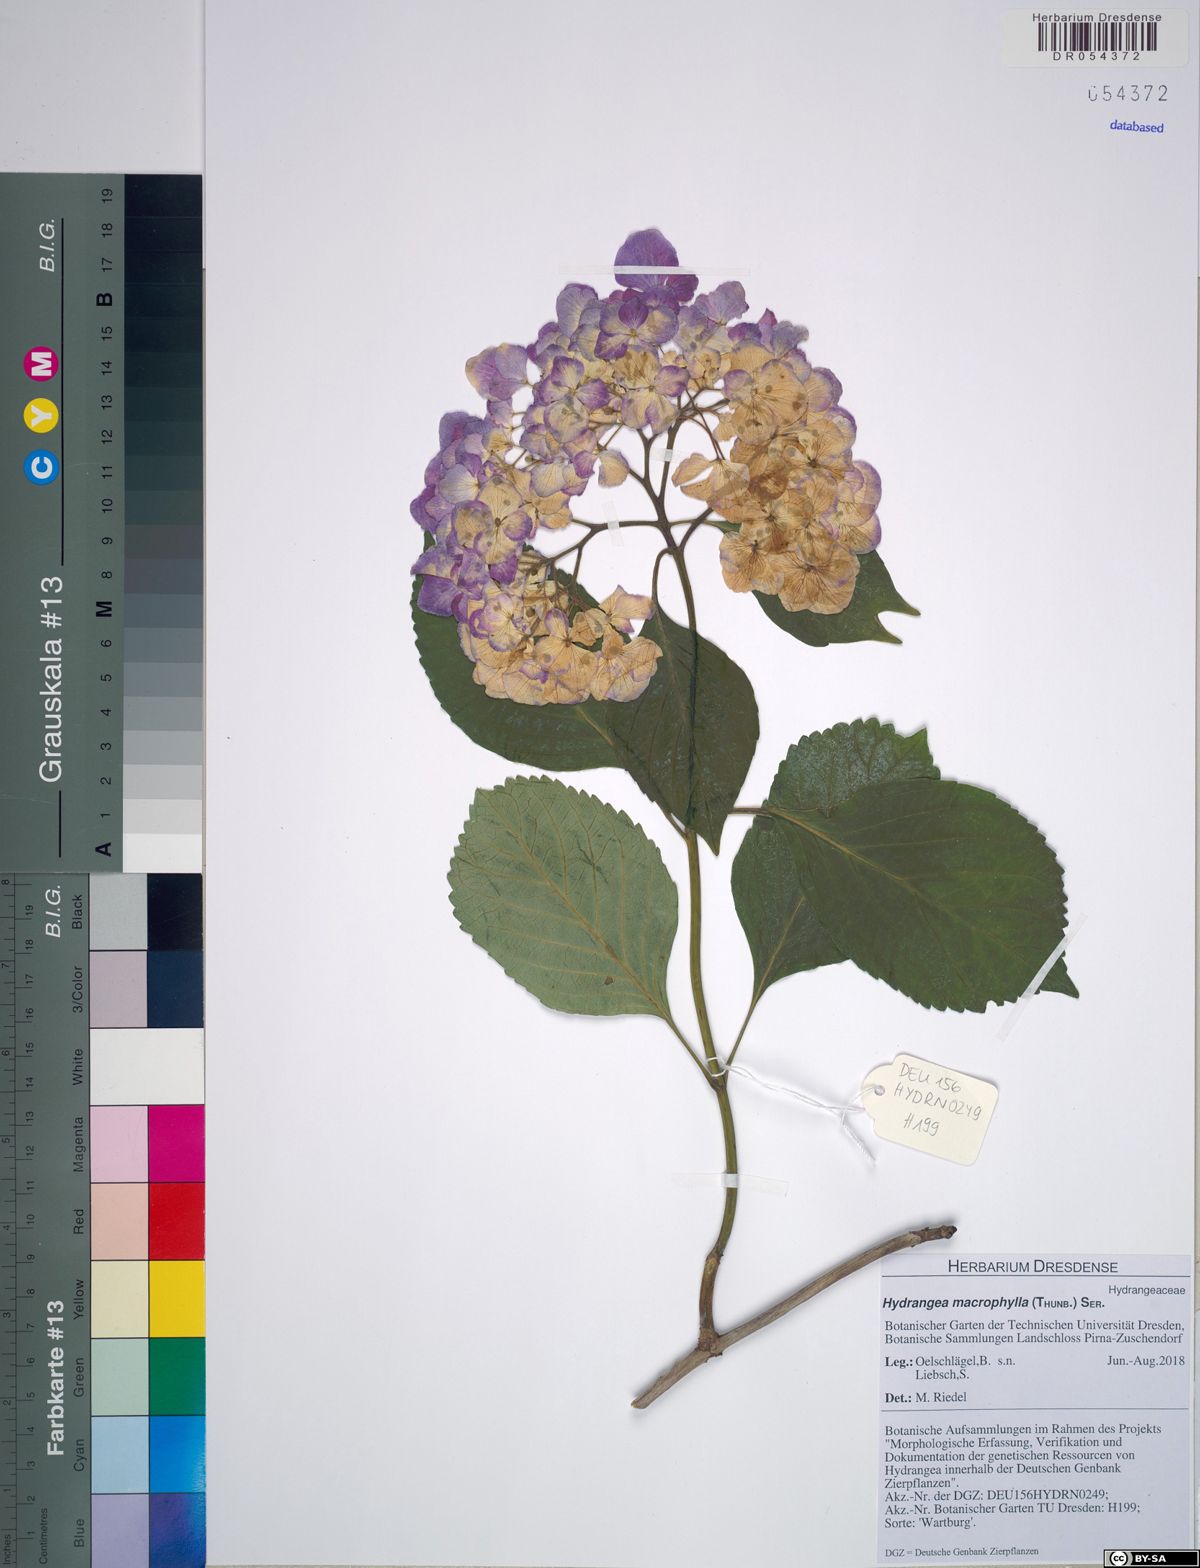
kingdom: Plantae
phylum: Tracheophyta
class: Magnoliopsida
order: Cornales
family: Hydrangeaceae
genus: Hydrangea
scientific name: Hydrangea macrophylla
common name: Hydrangea
